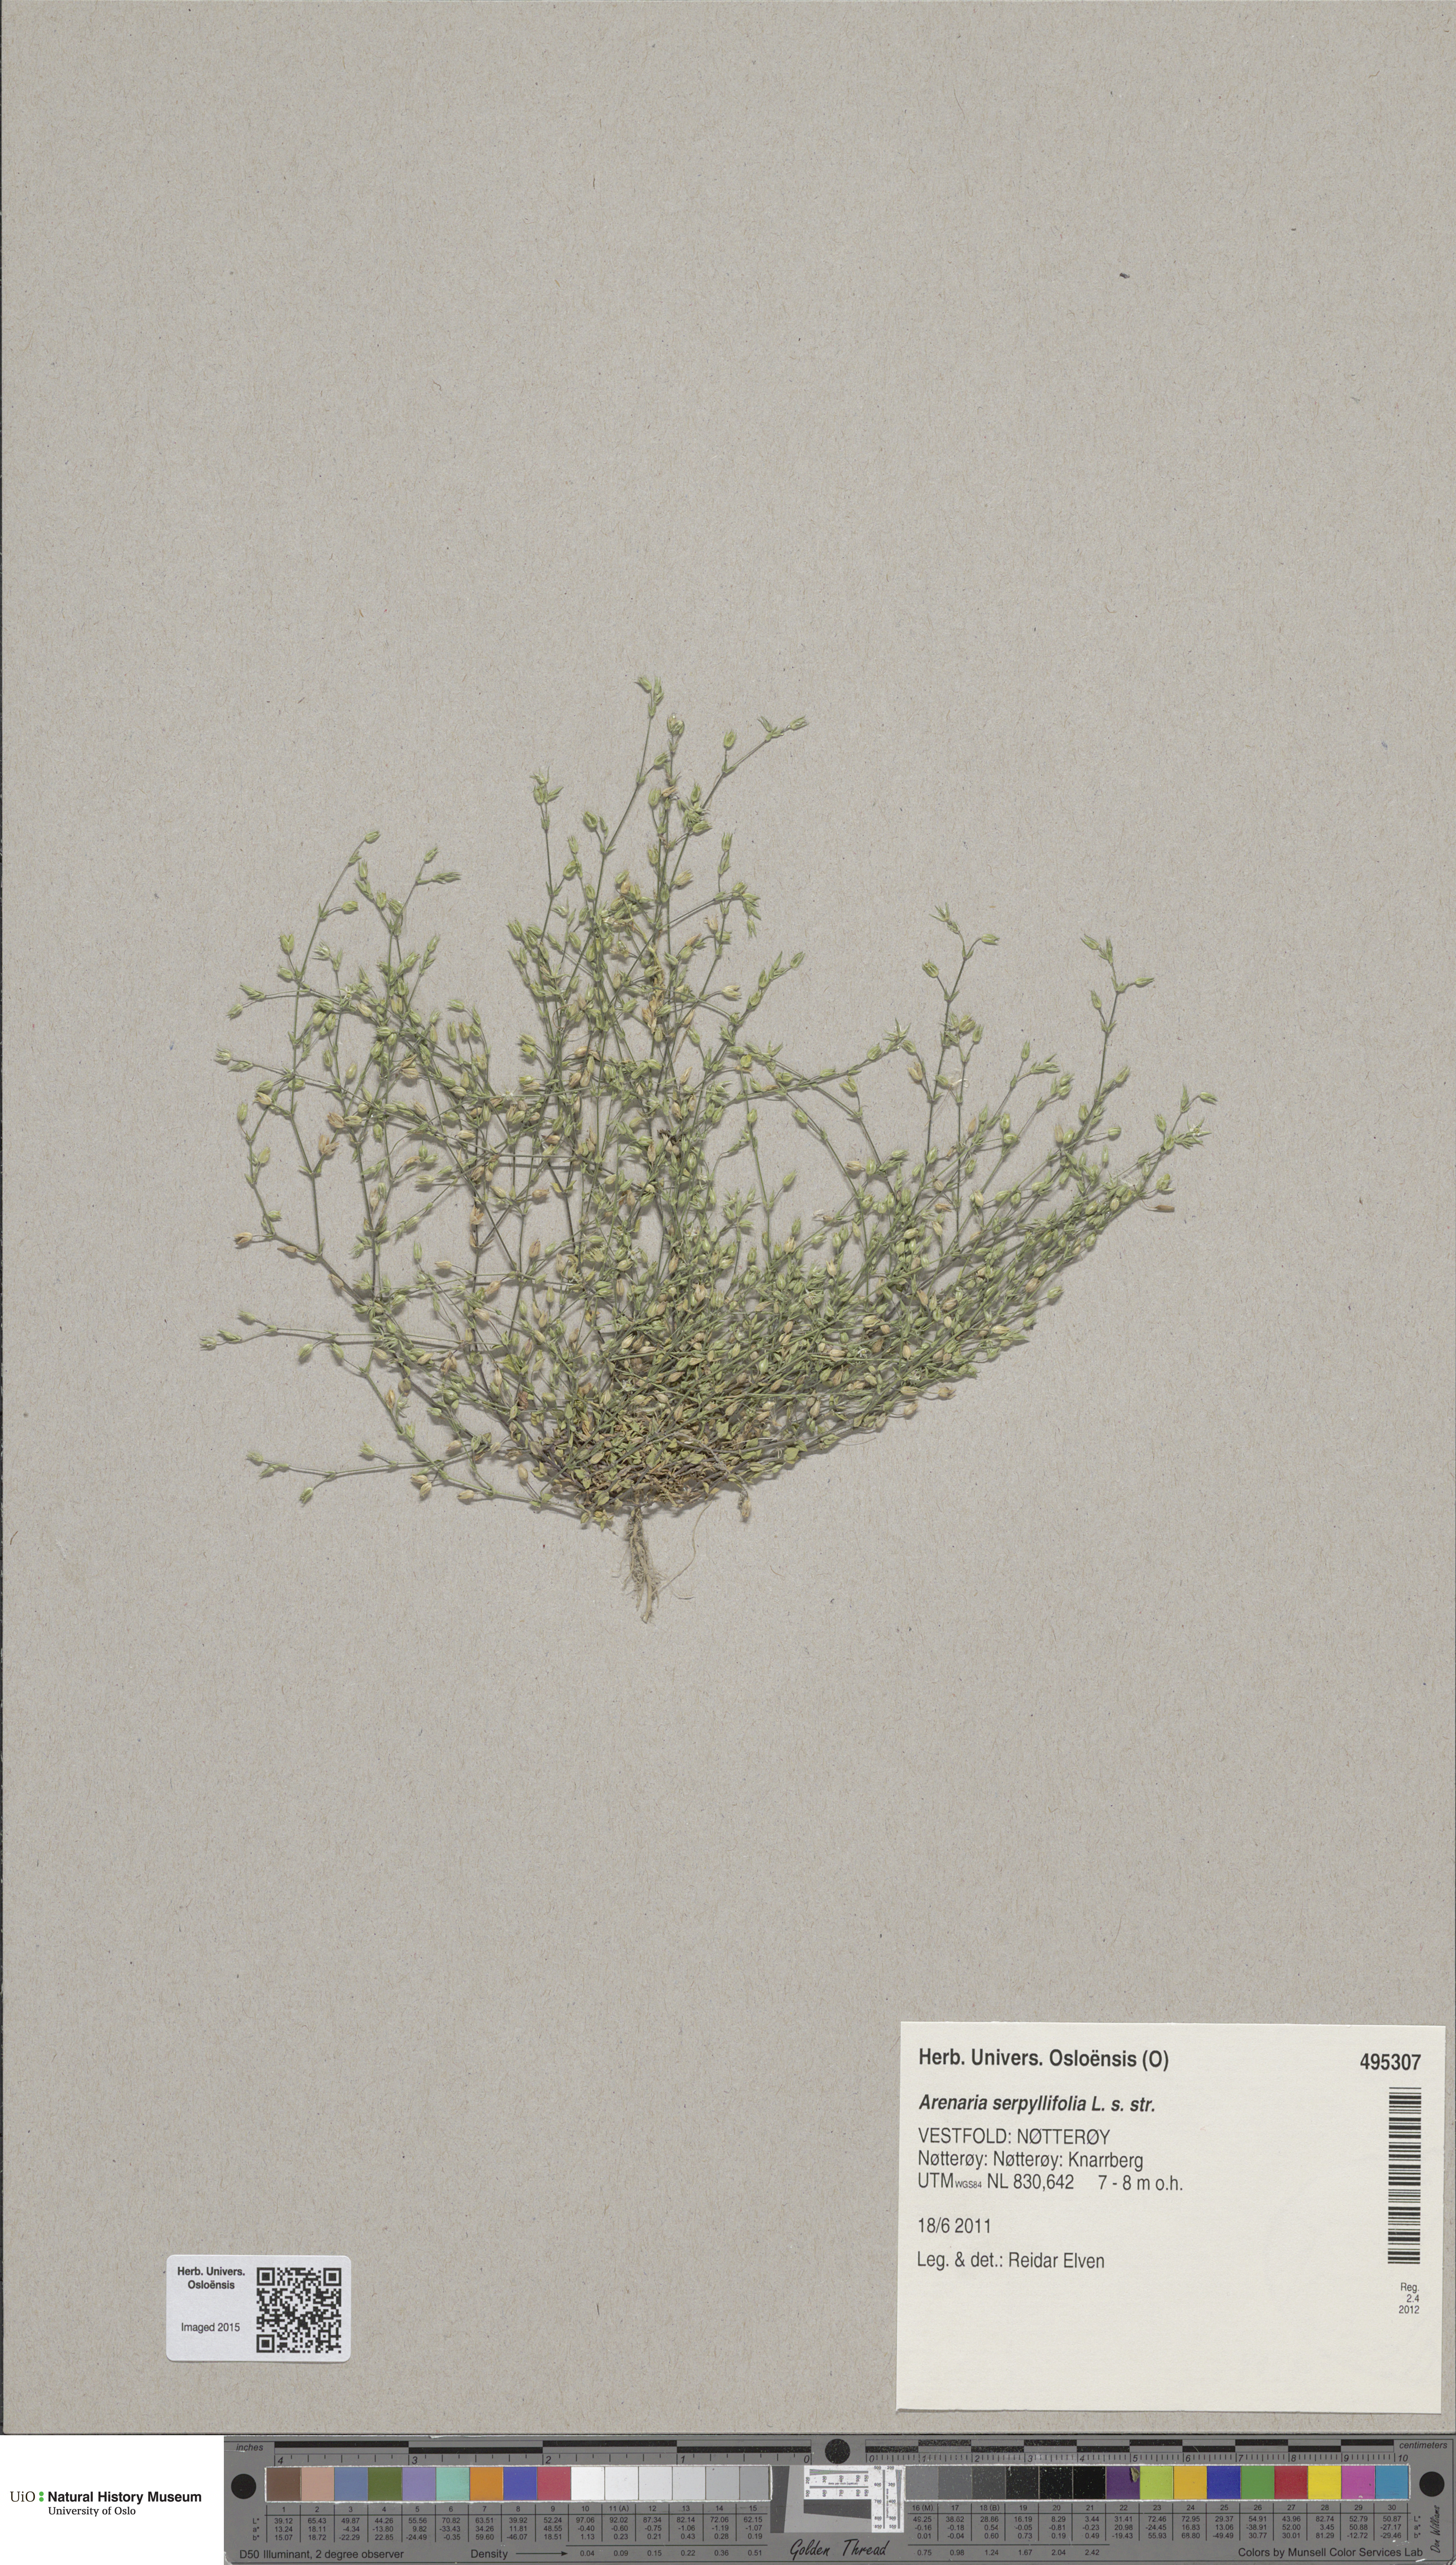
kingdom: Plantae
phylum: Tracheophyta
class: Magnoliopsida
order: Caryophyllales
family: Caryophyllaceae
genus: Arenaria
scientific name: Arenaria serpyllifolia
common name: Thyme-leaved sandwort
